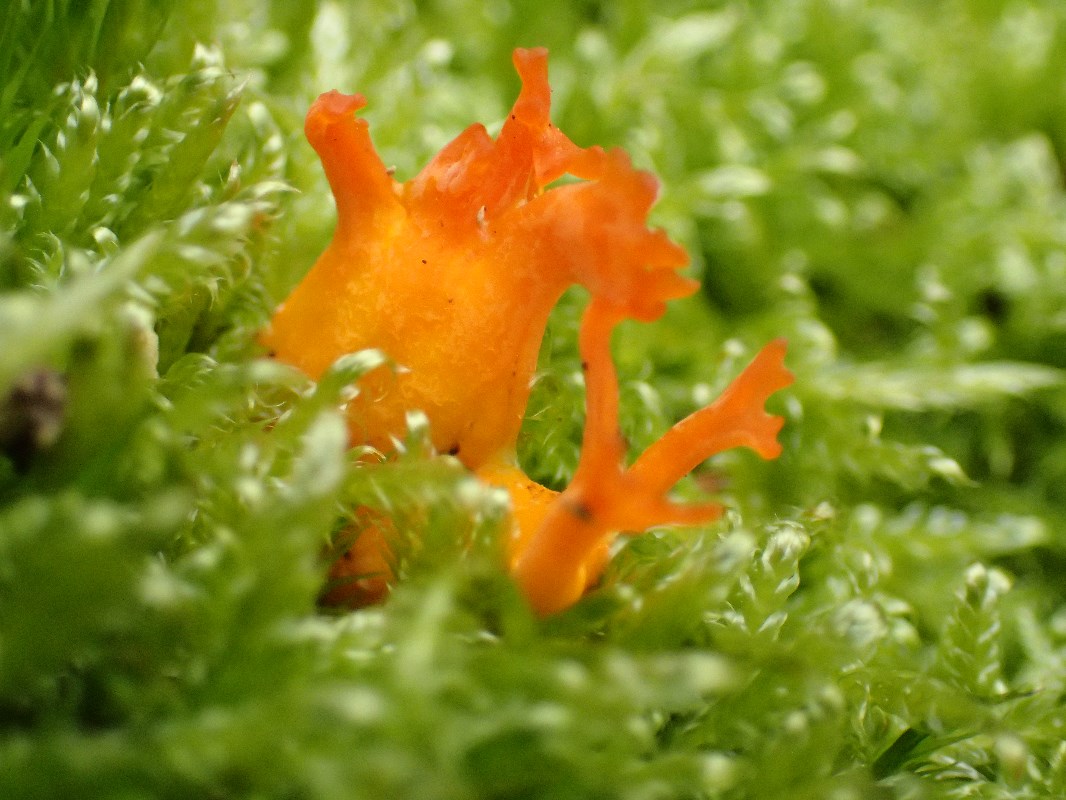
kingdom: Fungi
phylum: Basidiomycota
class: Dacrymycetes
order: Dacrymycetales
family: Dacrymycetaceae
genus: Calocera
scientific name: Calocera viscosa
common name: almindelig guldgaffel
